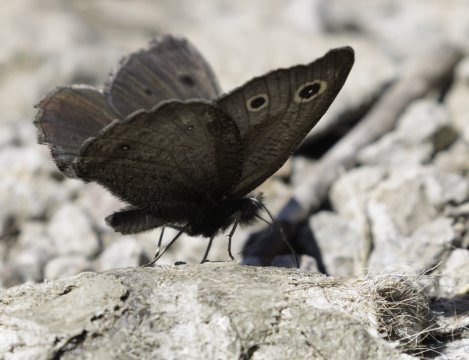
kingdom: Animalia
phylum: Arthropoda
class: Insecta
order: Lepidoptera
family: Nymphalidae
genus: Cercyonis
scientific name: Cercyonis oetus
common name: Small Wood-Nymph
